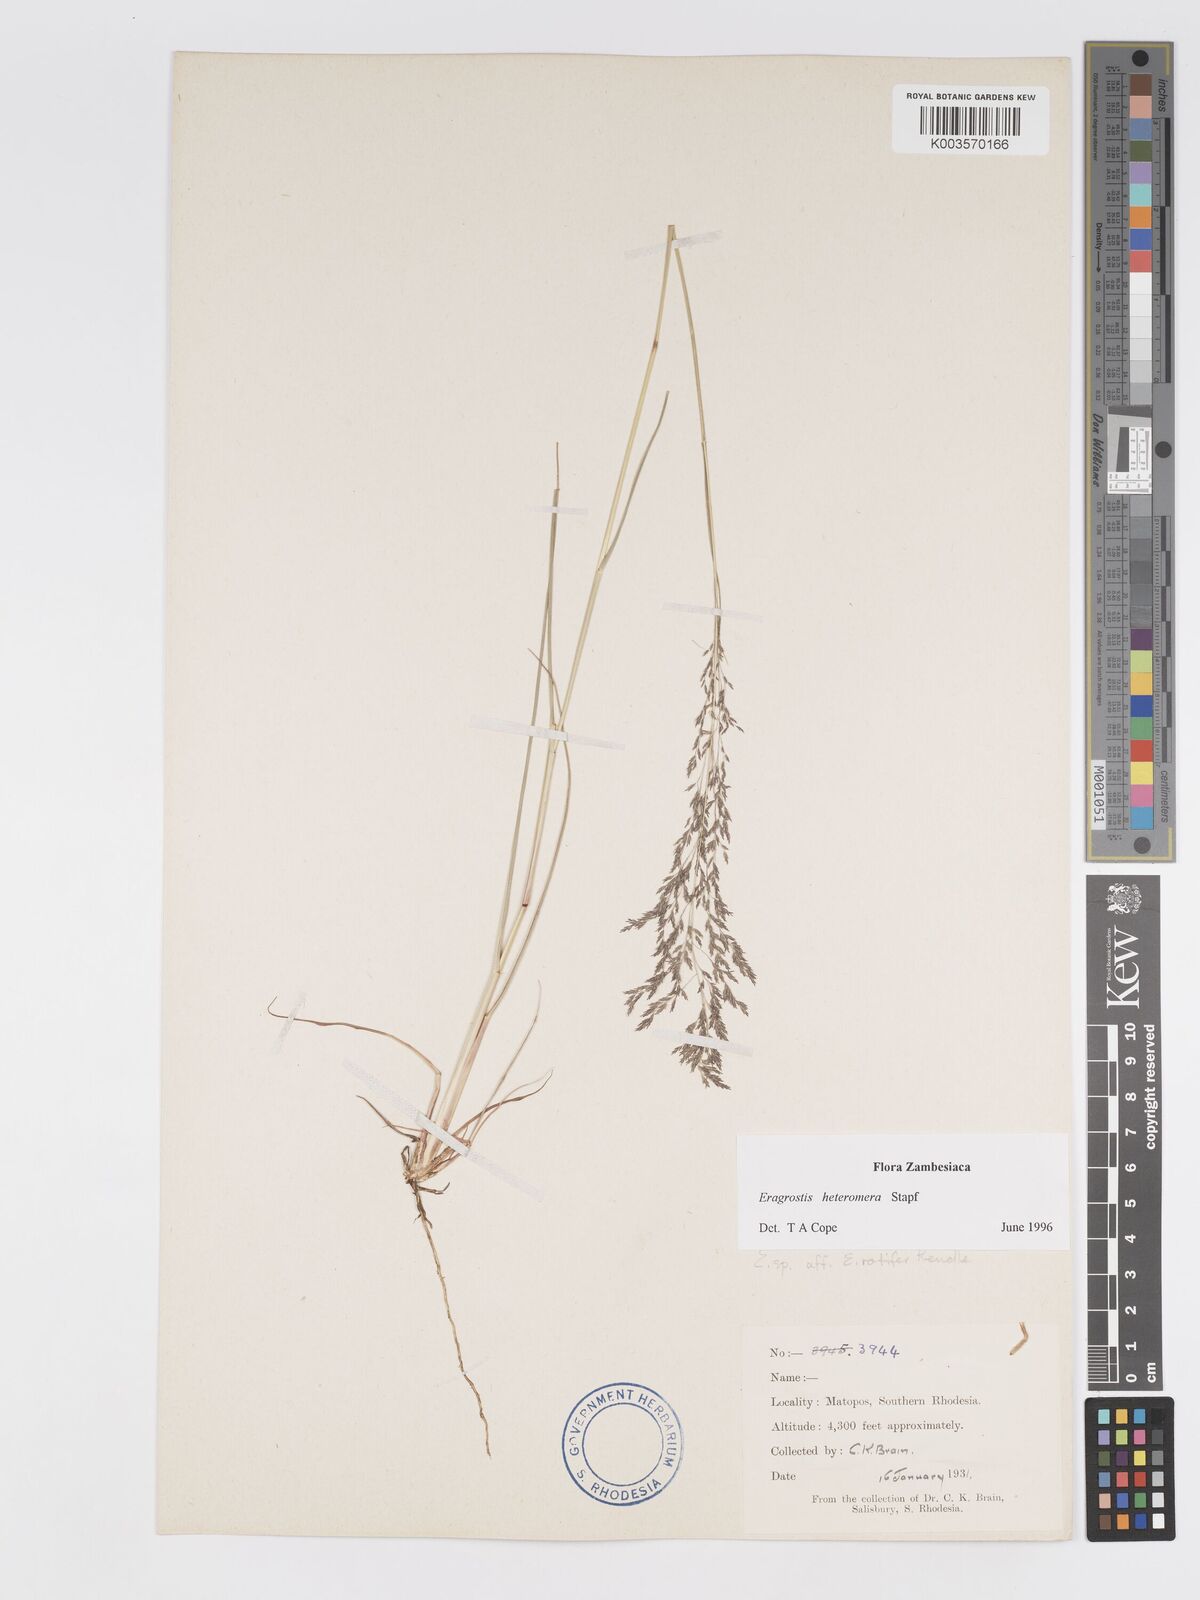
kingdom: Plantae
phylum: Tracheophyta
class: Liliopsida
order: Poales
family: Poaceae
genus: Eragrostis
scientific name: Eragrostis heteromera
